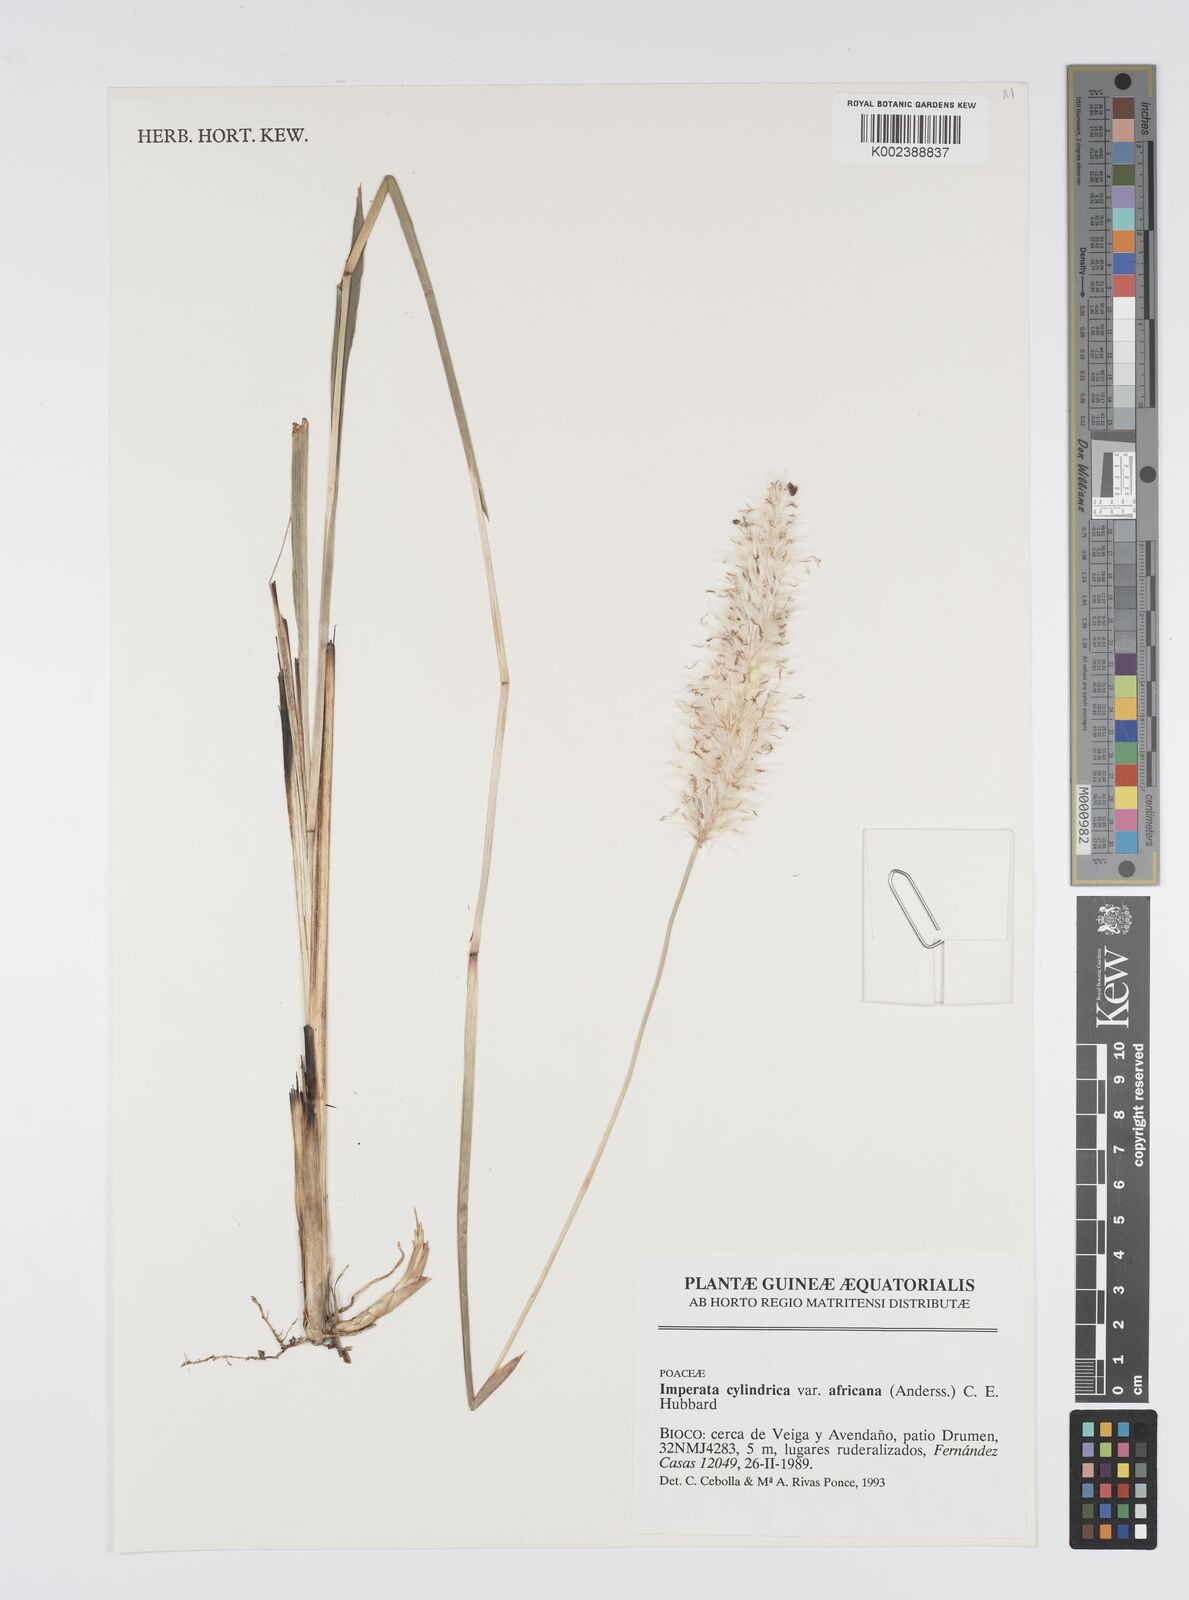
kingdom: Plantae
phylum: Tracheophyta
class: Liliopsida
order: Poales
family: Poaceae
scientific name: Poaceae
